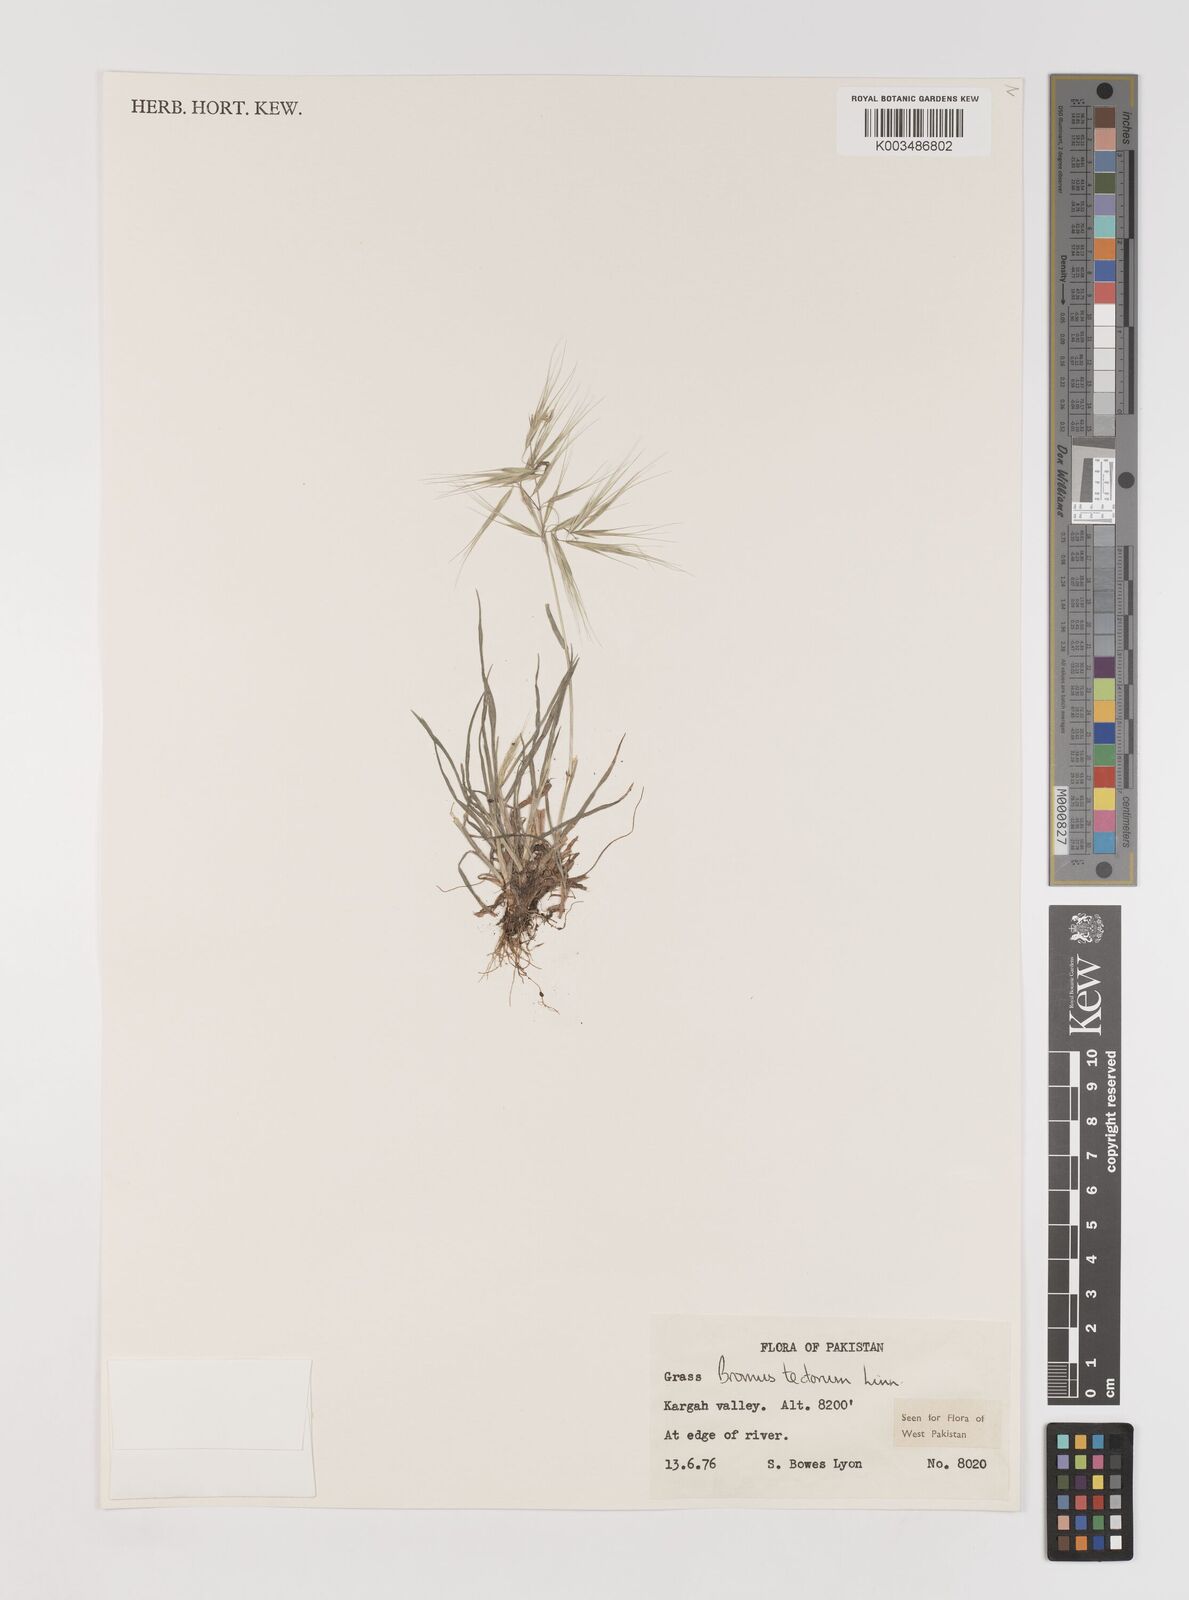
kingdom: Plantae
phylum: Tracheophyta
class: Liliopsida
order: Poales
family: Poaceae
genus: Bromus
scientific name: Bromus tectorum
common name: Cheatgrass
